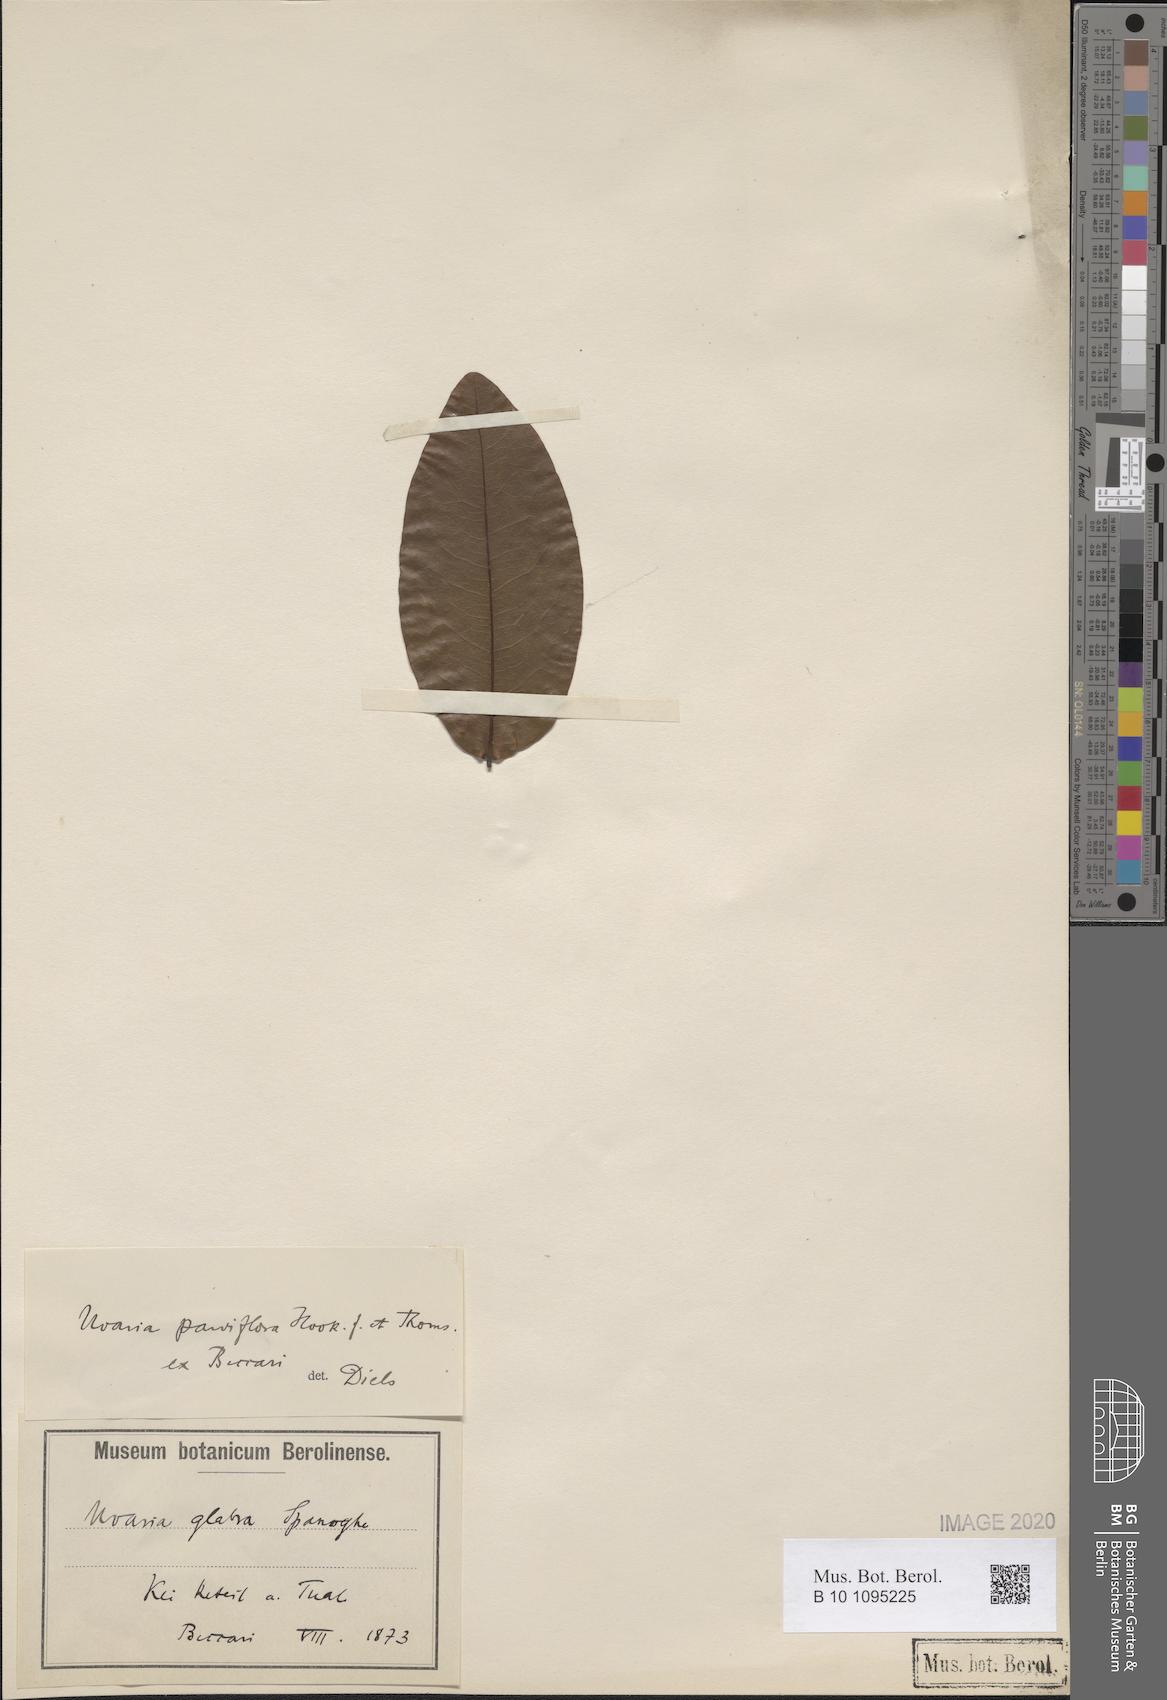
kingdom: Plantae
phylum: Tracheophyta
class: Magnoliopsida
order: Magnoliales
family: Annonaceae
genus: Uvaria
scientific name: Uvaria clementis
